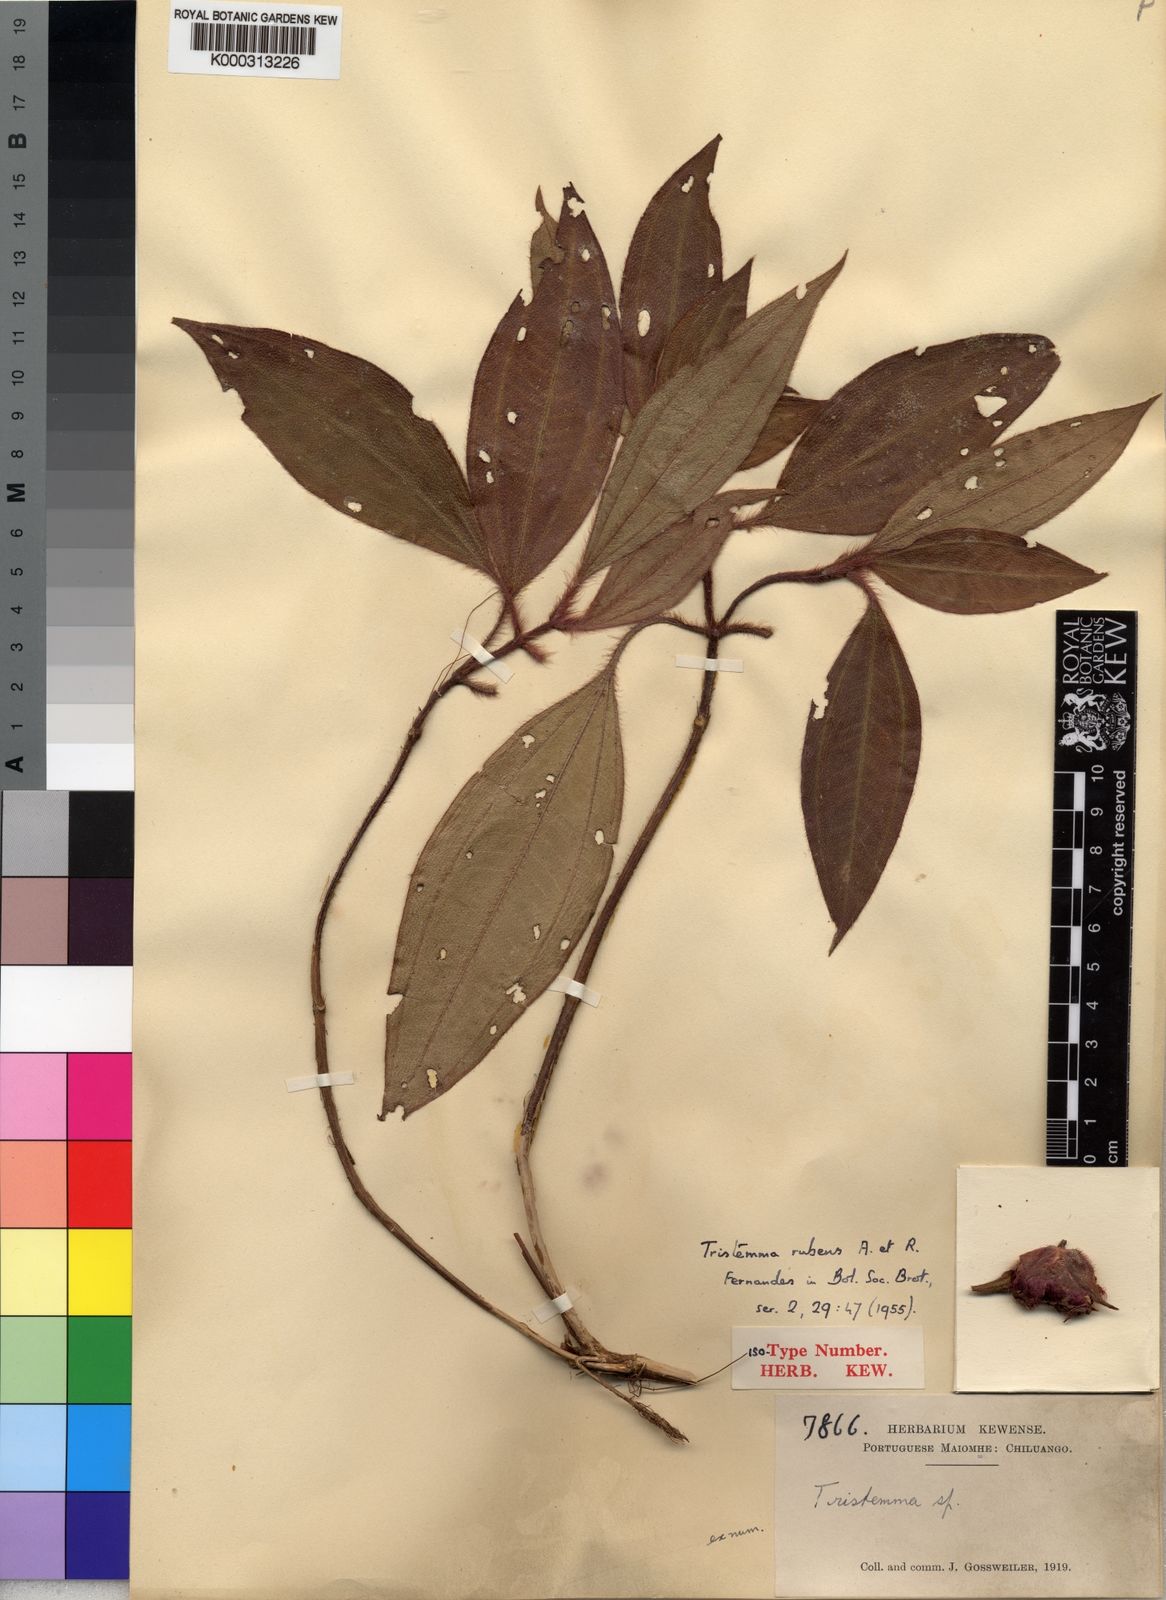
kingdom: Plantae
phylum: Tracheophyta
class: Magnoliopsida
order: Myrtales
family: Melastomataceae
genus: Tristemma
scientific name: Tristemma rubens
